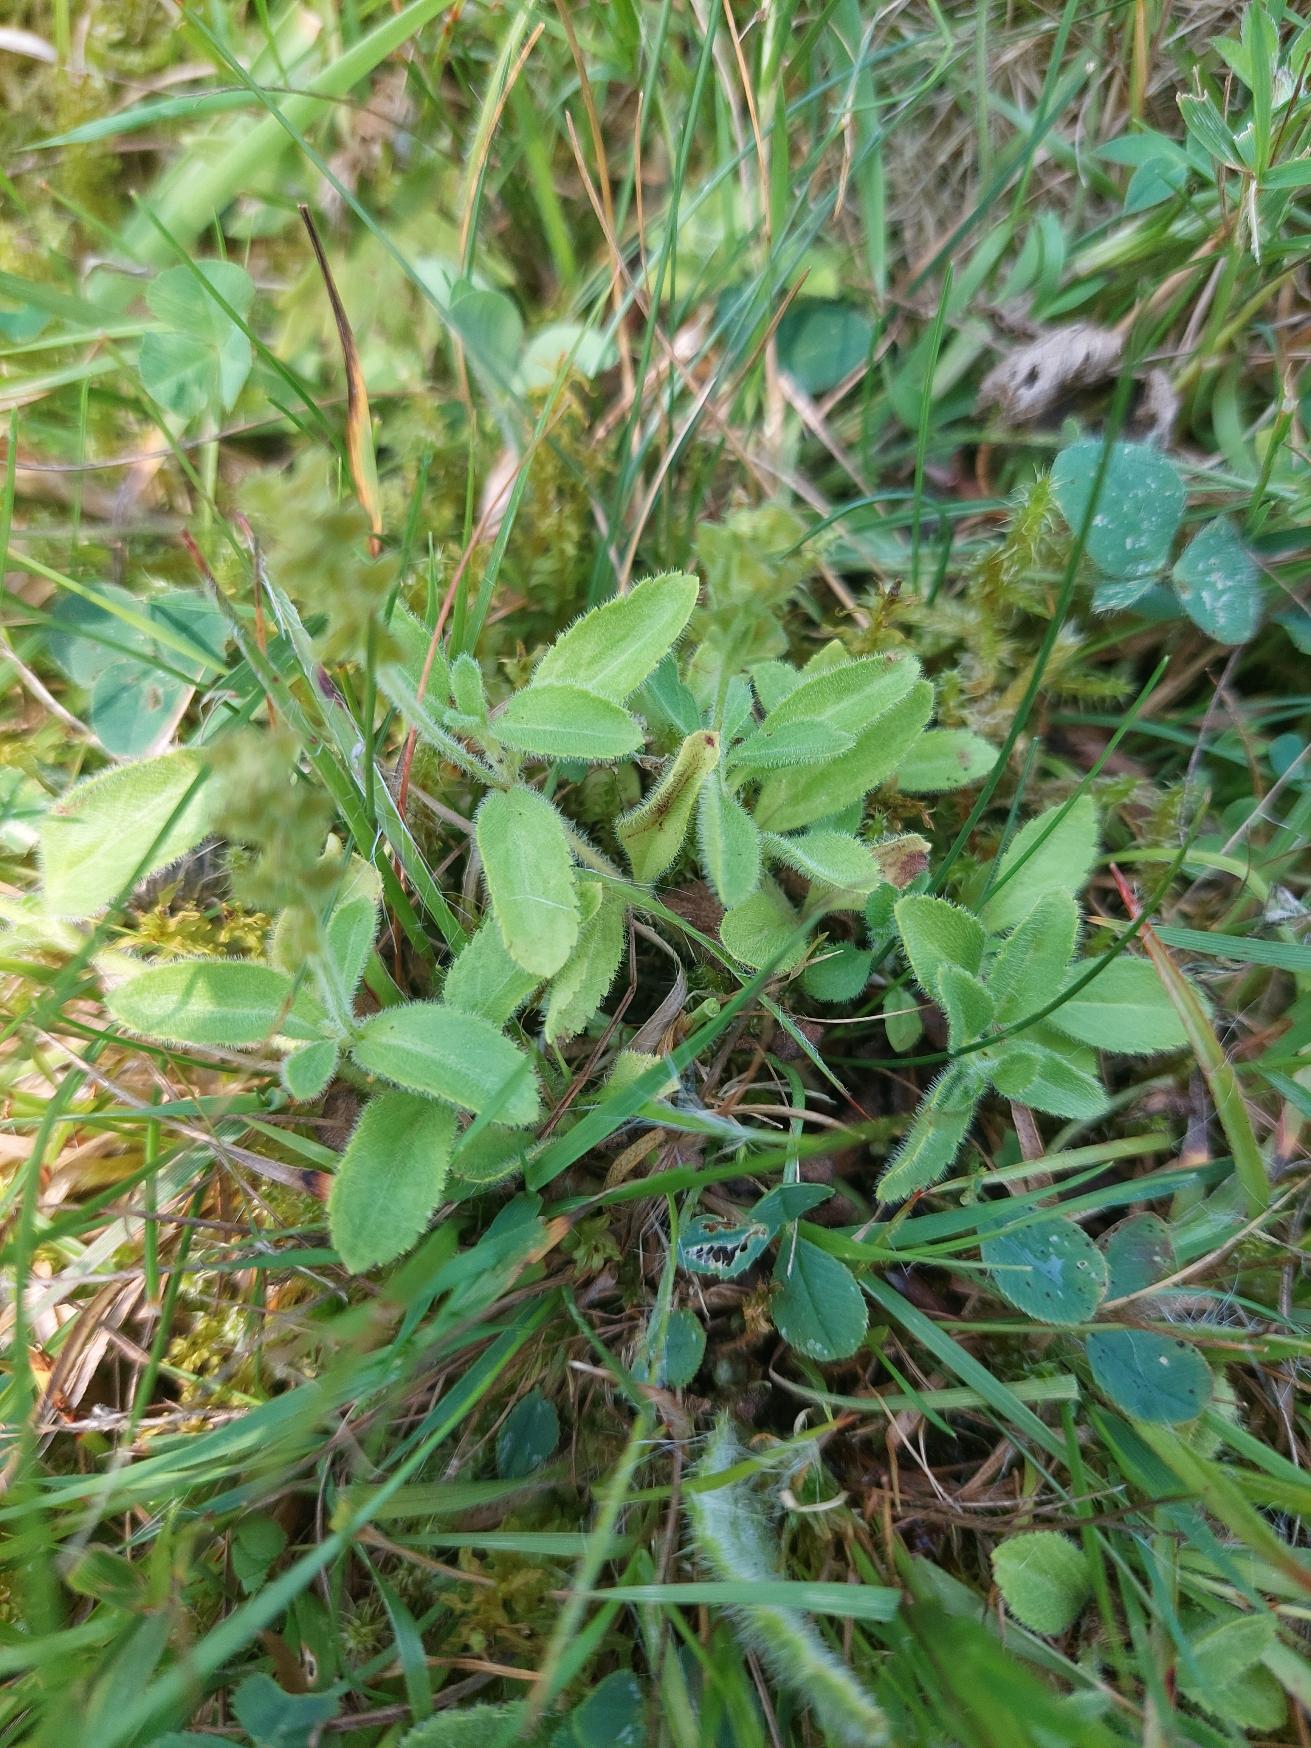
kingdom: Plantae
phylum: Tracheophyta
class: Magnoliopsida
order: Lamiales
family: Plantaginaceae
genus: Veronica
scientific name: Veronica officinalis
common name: Læge-ærenpris
